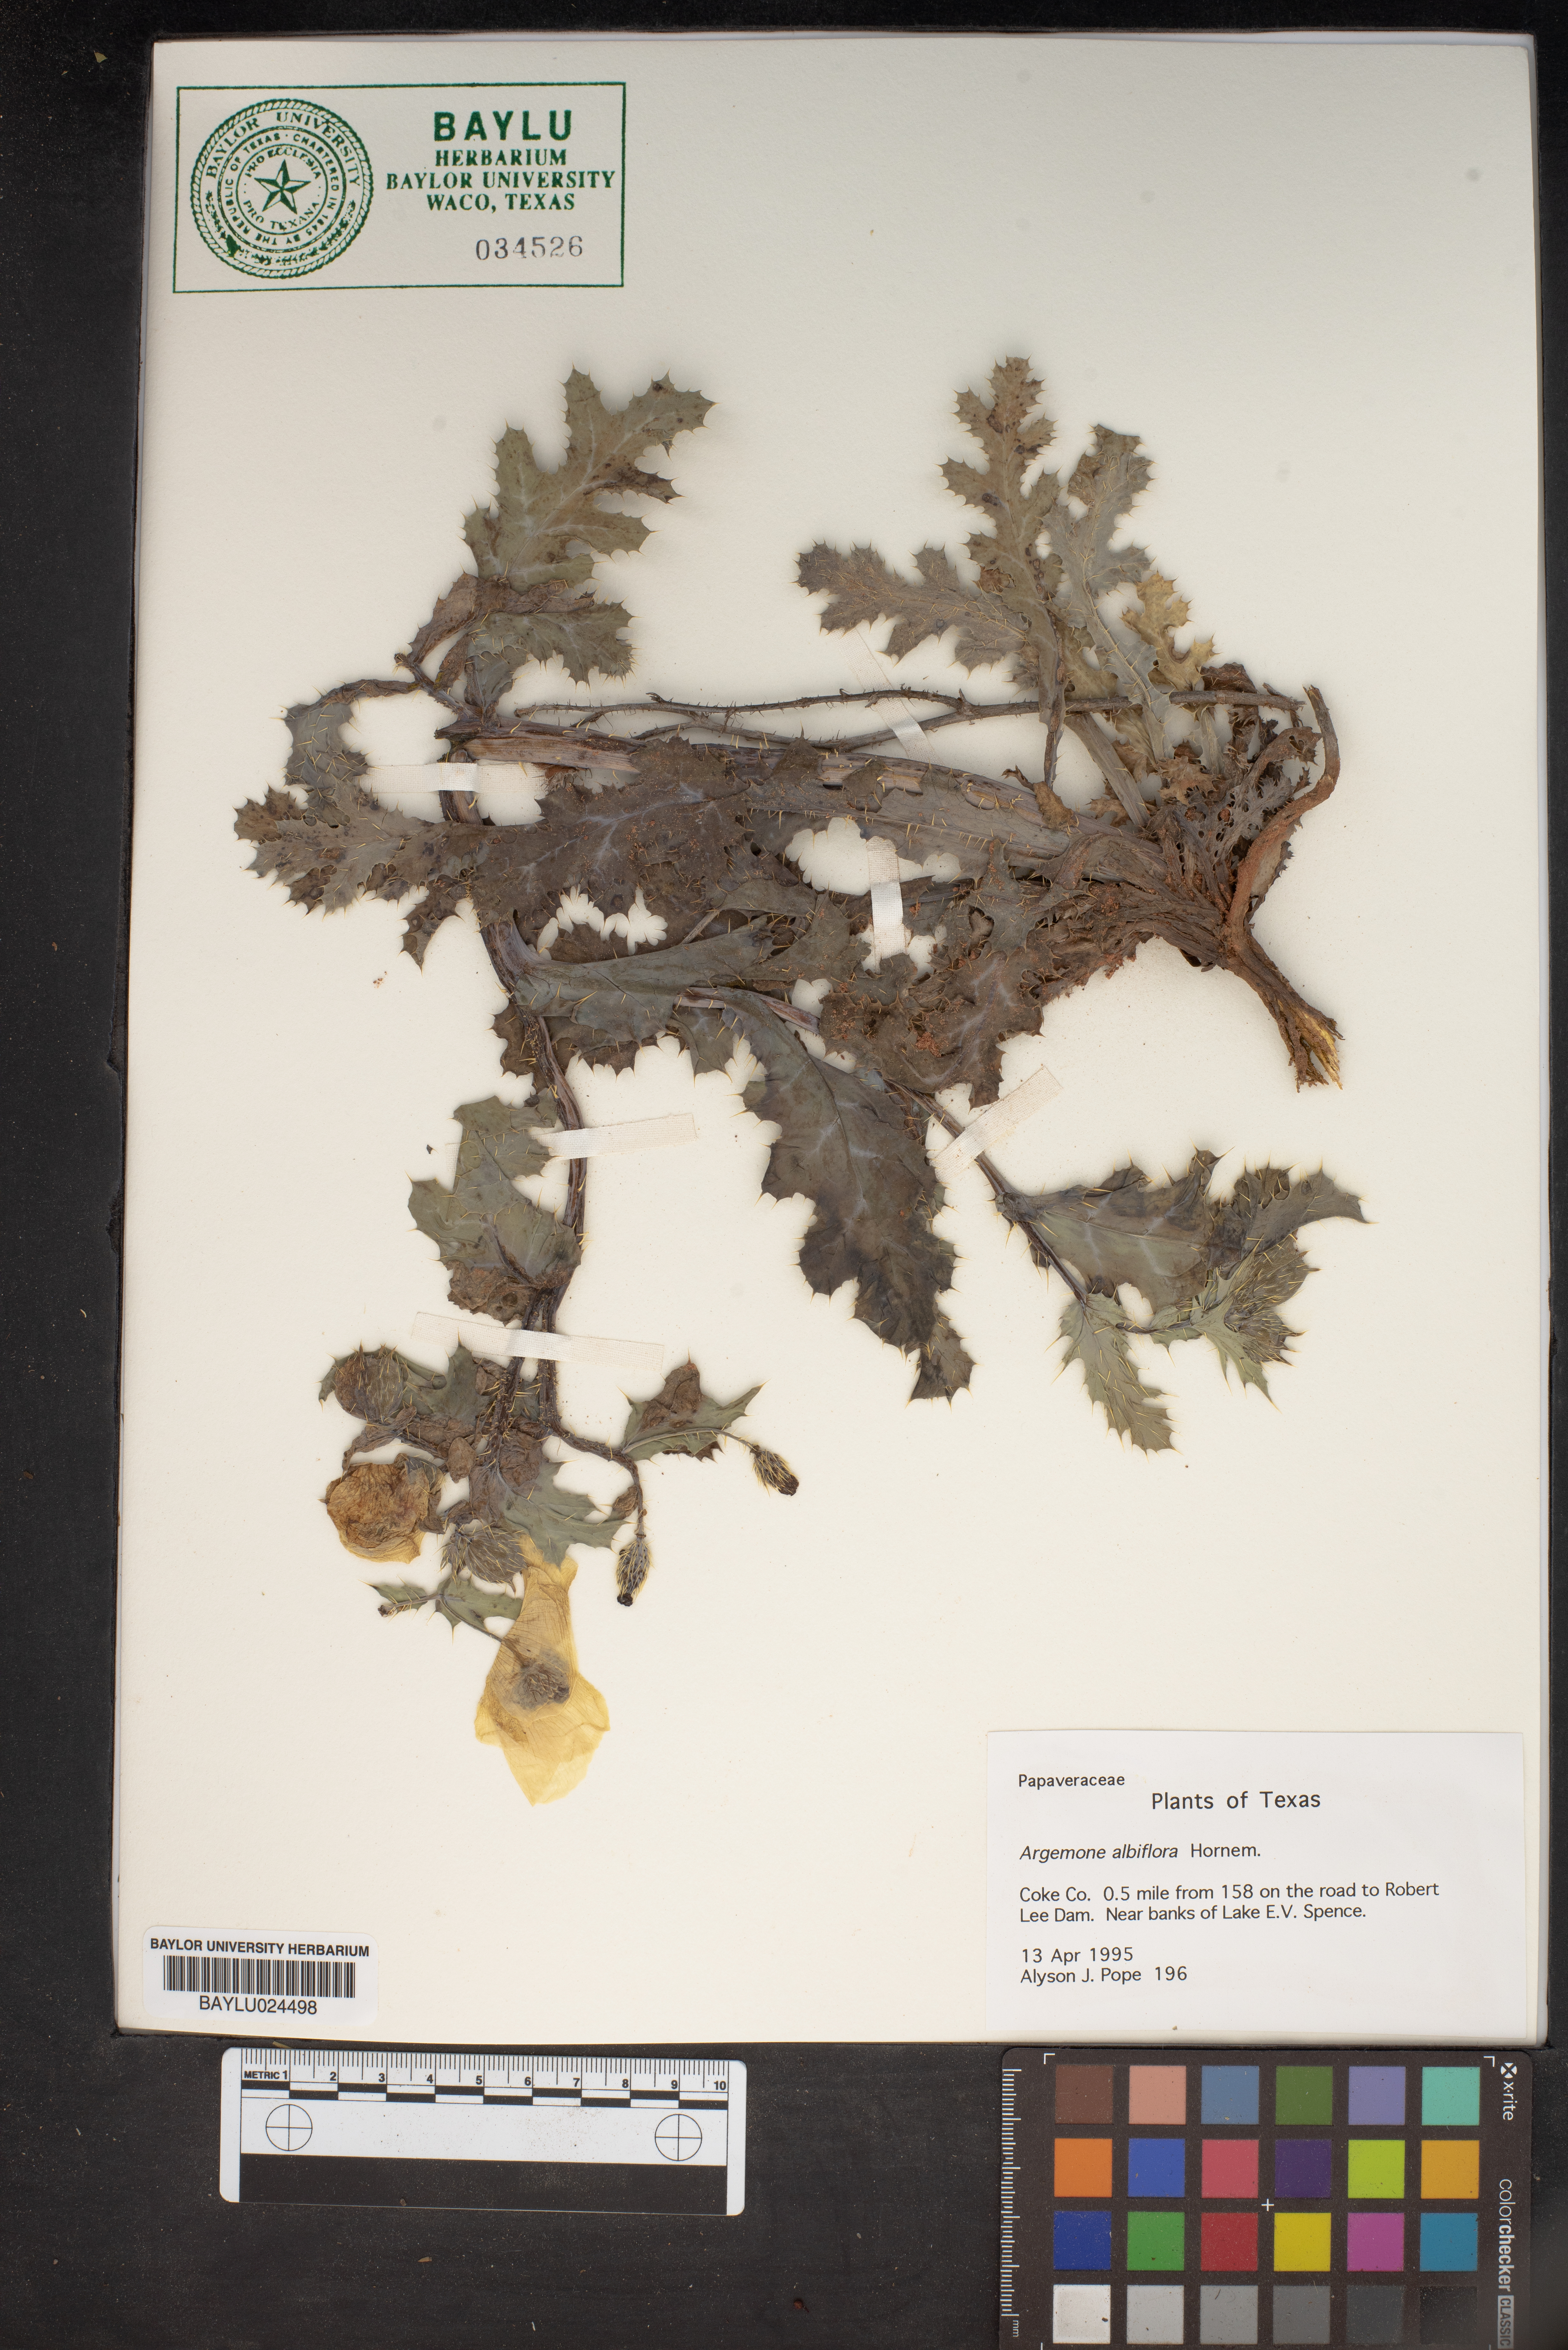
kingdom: Plantae
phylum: Tracheophyta
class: Magnoliopsida
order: Ranunculales
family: Papaveraceae
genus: Argemone
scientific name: Argemone albiflora
